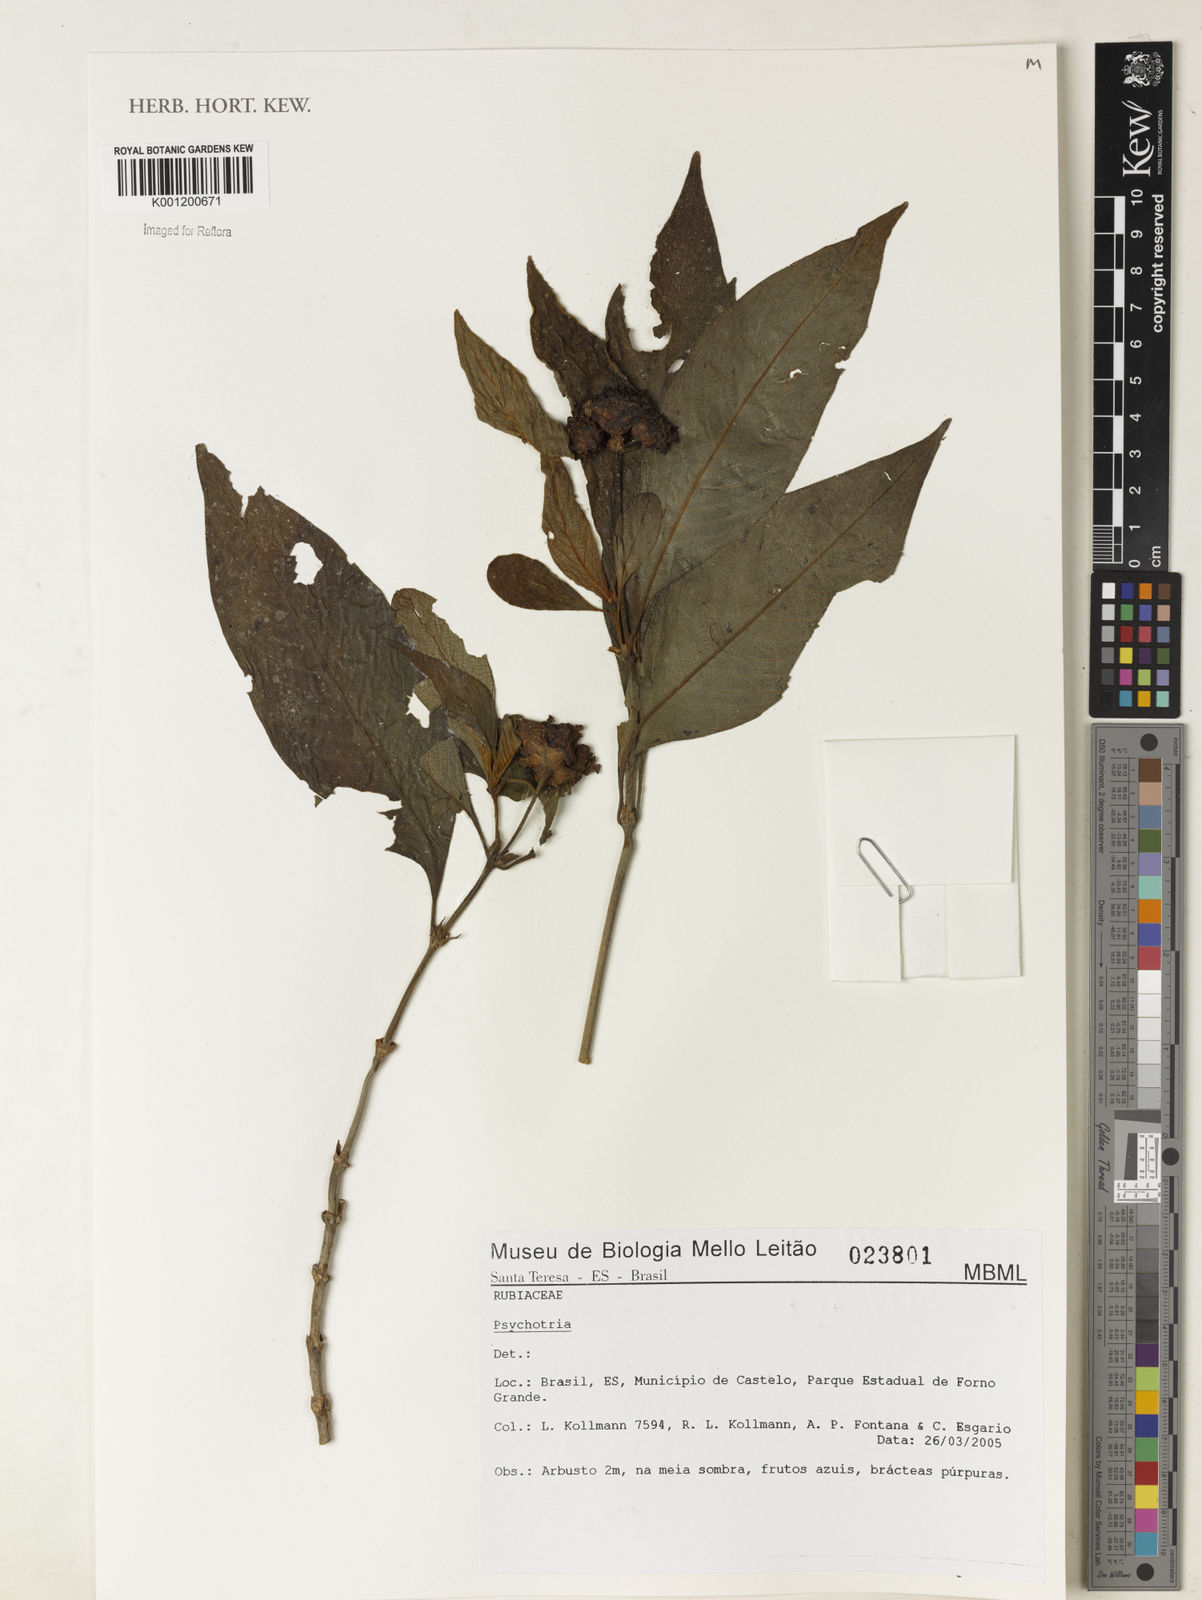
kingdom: Plantae
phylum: Tracheophyta
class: Magnoliopsida
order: Gentianales
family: Rubiaceae
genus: Psychotria
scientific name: Psychotria
